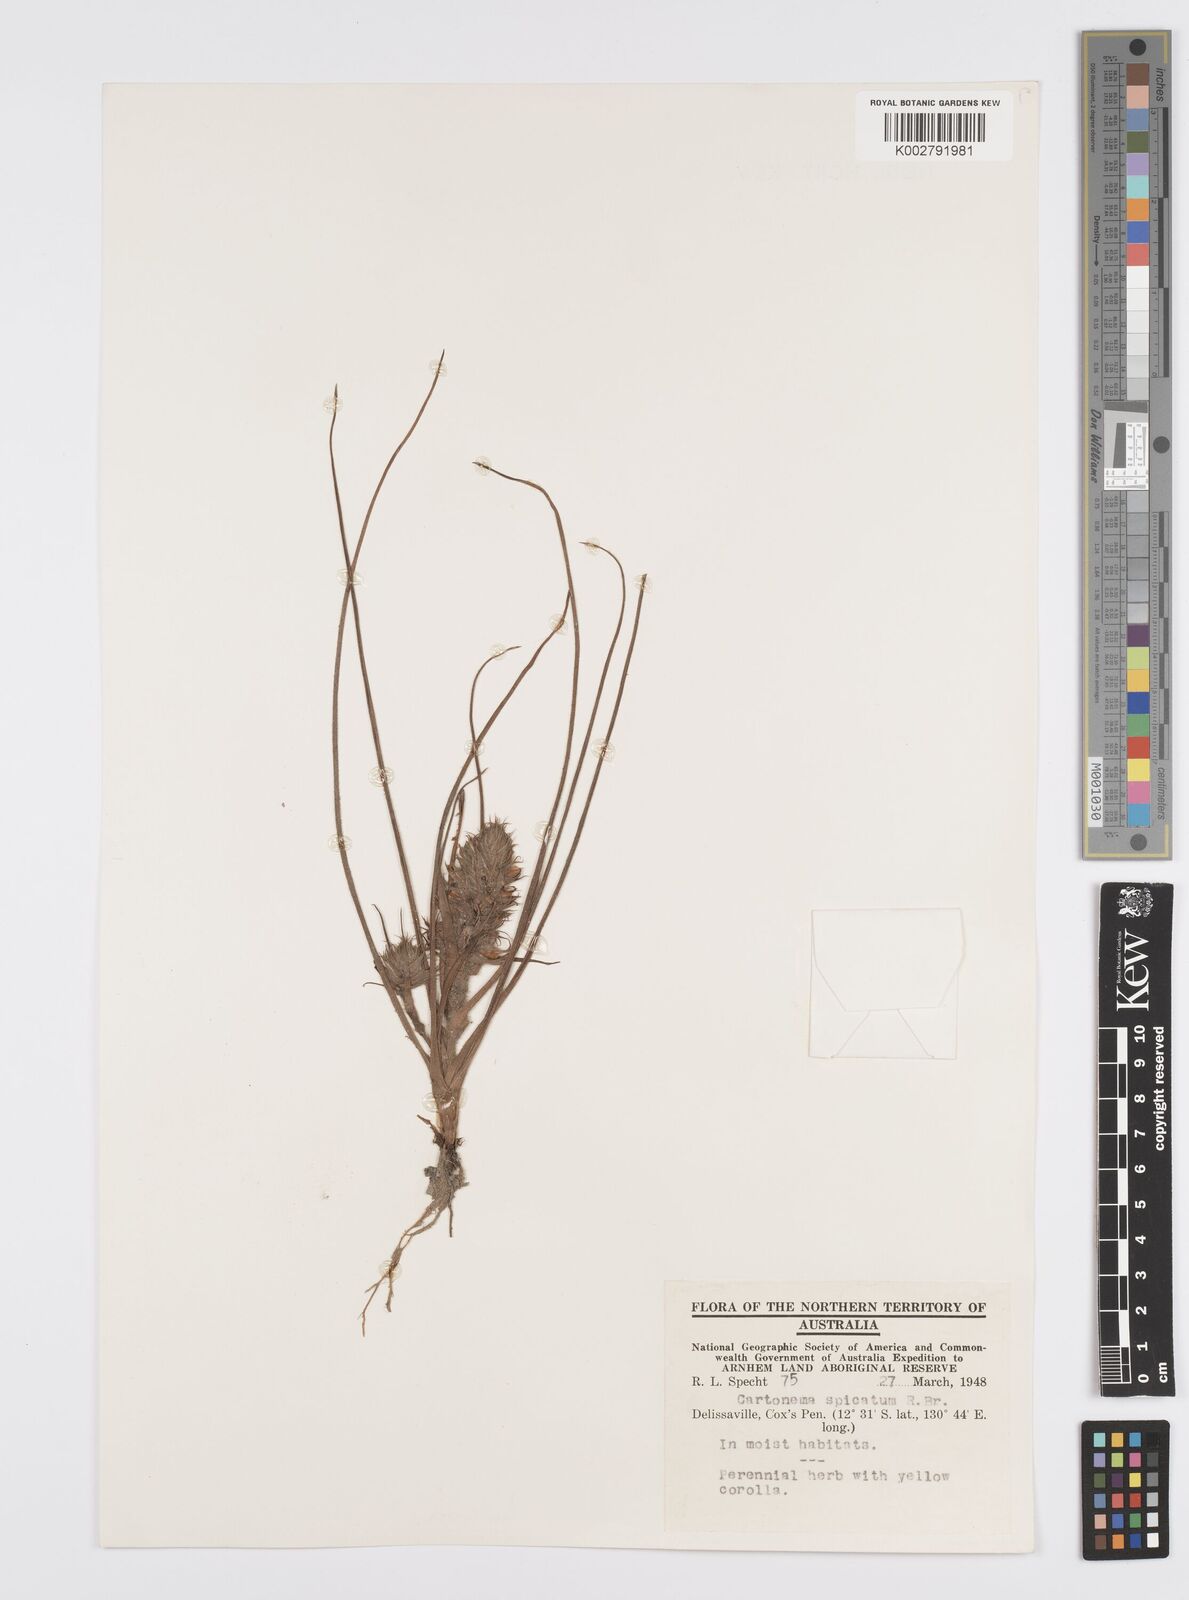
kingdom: Plantae
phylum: Tracheophyta
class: Liliopsida
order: Commelinales
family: Commelinaceae
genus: Cartonema
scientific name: Cartonema spicatum
